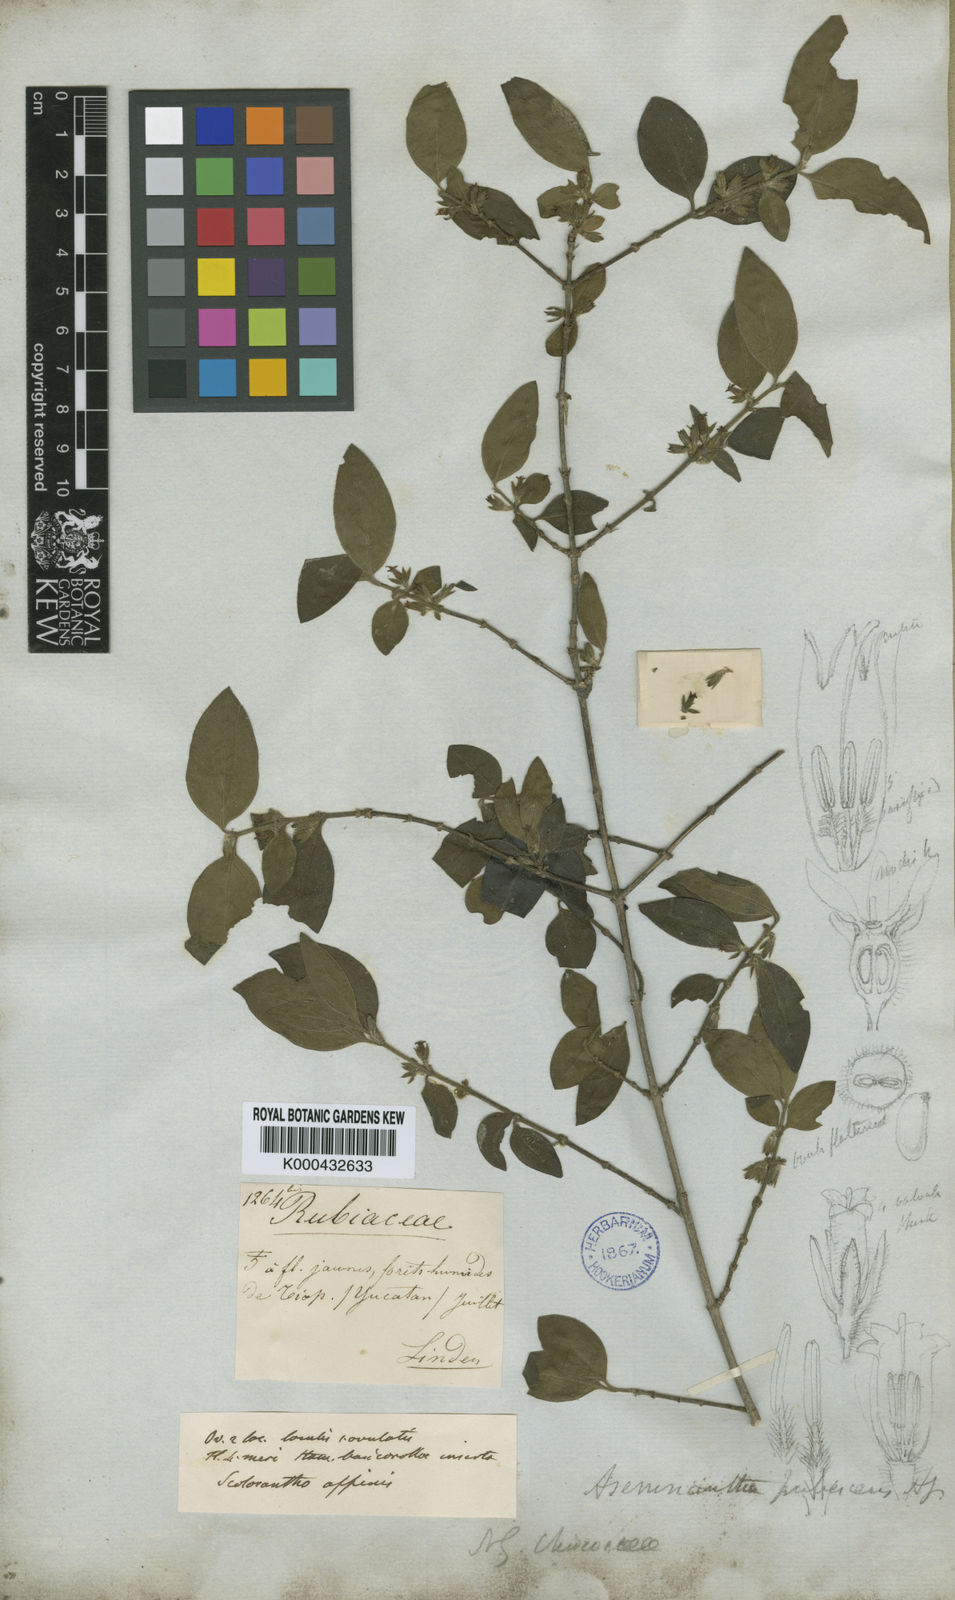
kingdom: Plantae
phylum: Tracheophyta
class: Magnoliopsida
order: Gentianales
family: Rubiaceae
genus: Chiococca
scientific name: Chiococca motleyana
